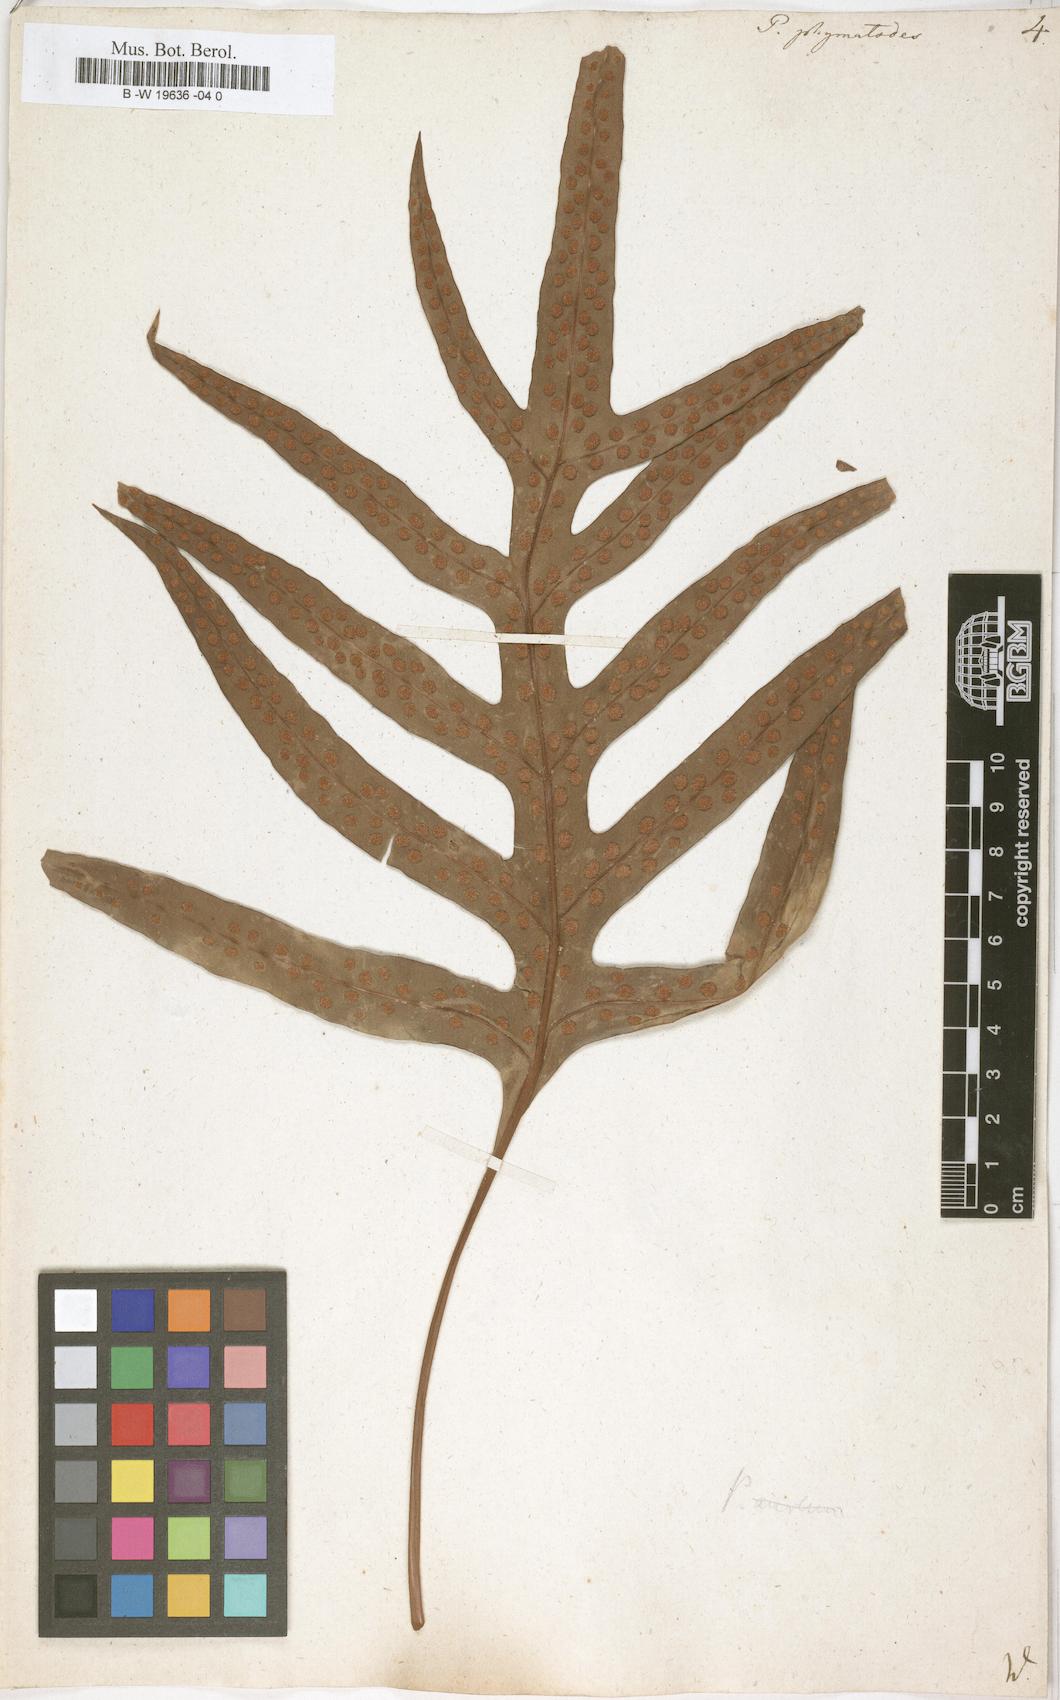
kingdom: Plantae
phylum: Tracheophyta
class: Polypodiopsida
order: Polypodiales
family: Polypodiaceae
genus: Microsorum
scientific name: Microsorum scolopendria
